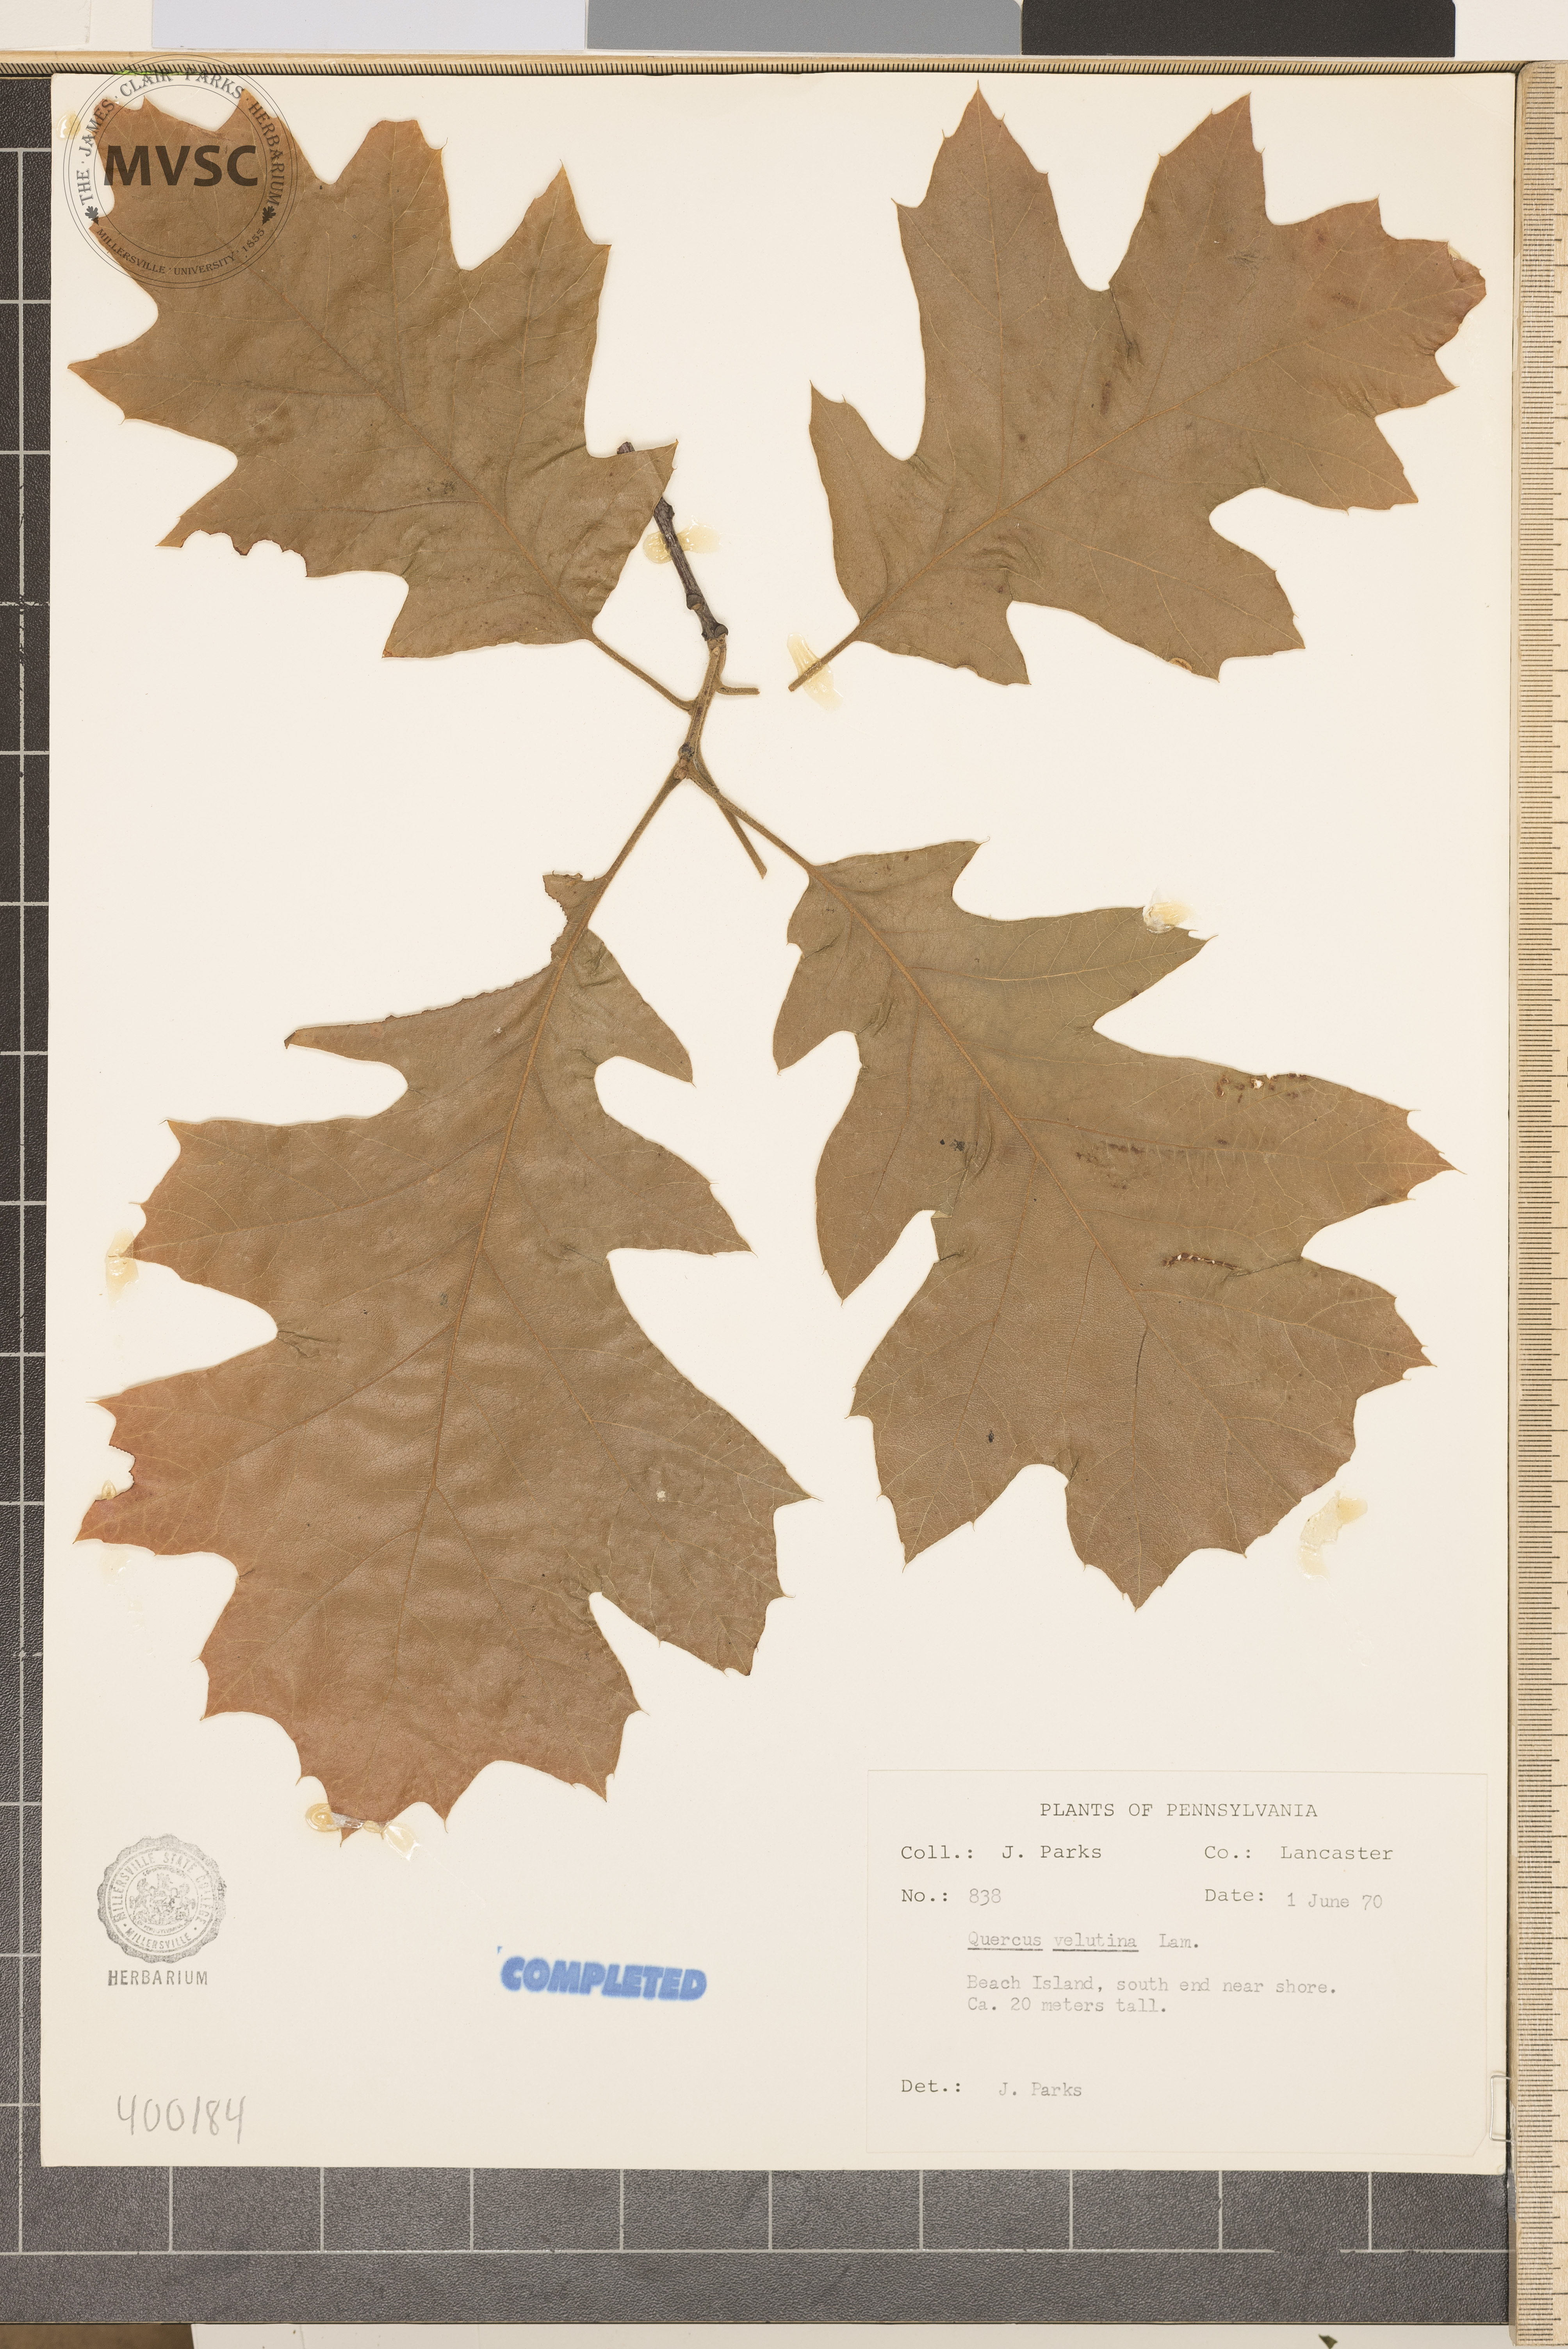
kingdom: Plantae
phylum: Tracheophyta
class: Magnoliopsida
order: Fagales
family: Fagaceae
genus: Quercus
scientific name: Quercus velutina
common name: black oak
